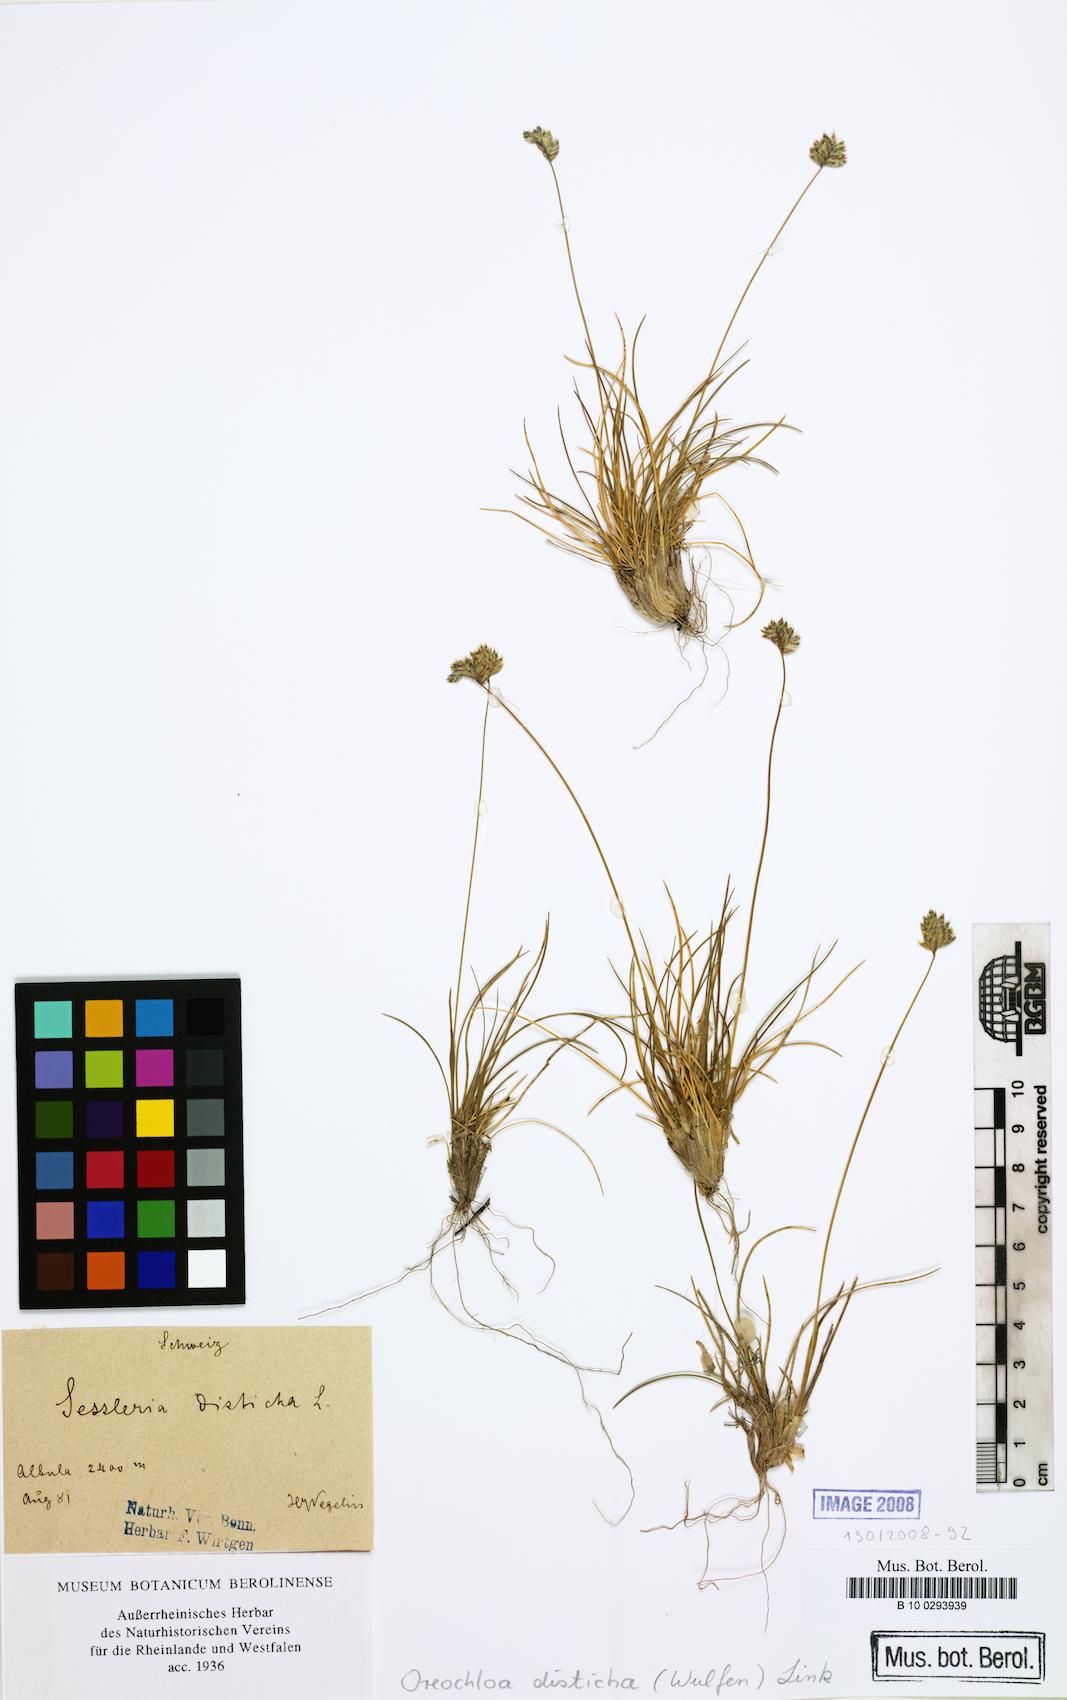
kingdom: Plantae
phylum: Tracheophyta
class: Liliopsida
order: Poales
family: Poaceae
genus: Oreochloa
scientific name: Oreochloa disticha
